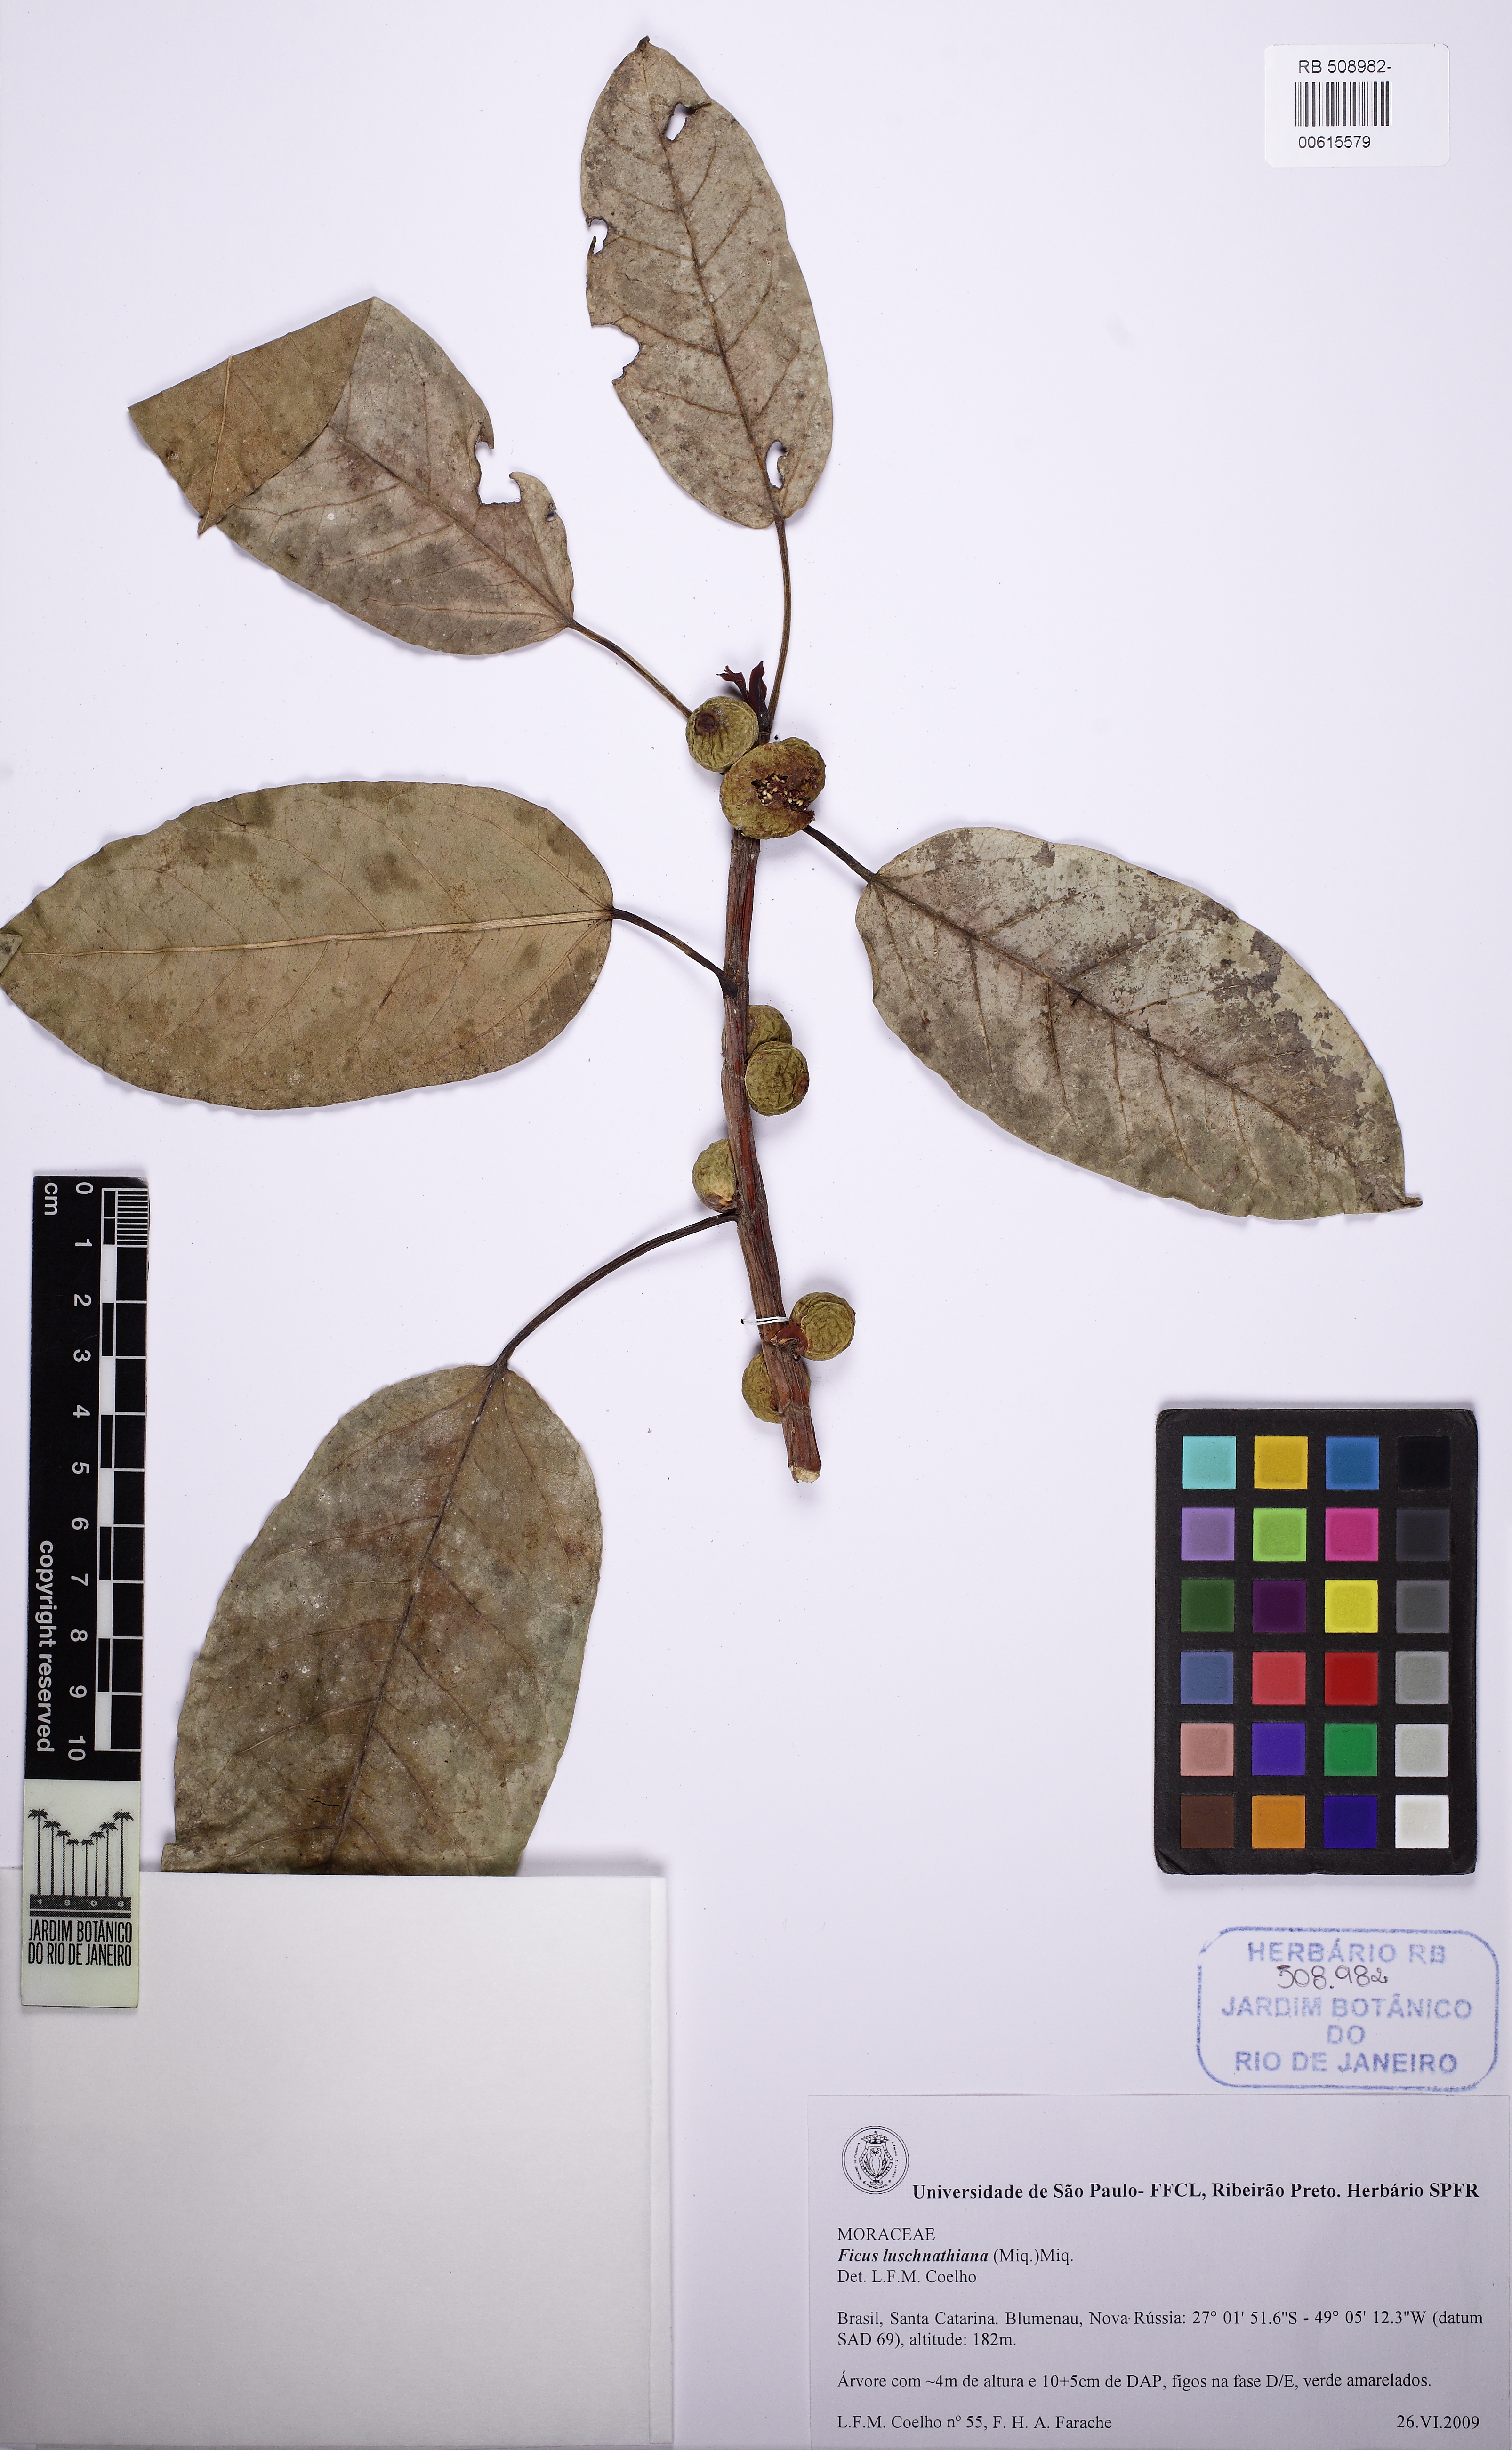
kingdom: Plantae
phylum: Tracheophyta
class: Magnoliopsida
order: Rosales
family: Moraceae
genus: Ficus
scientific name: Ficus luschnathiana
